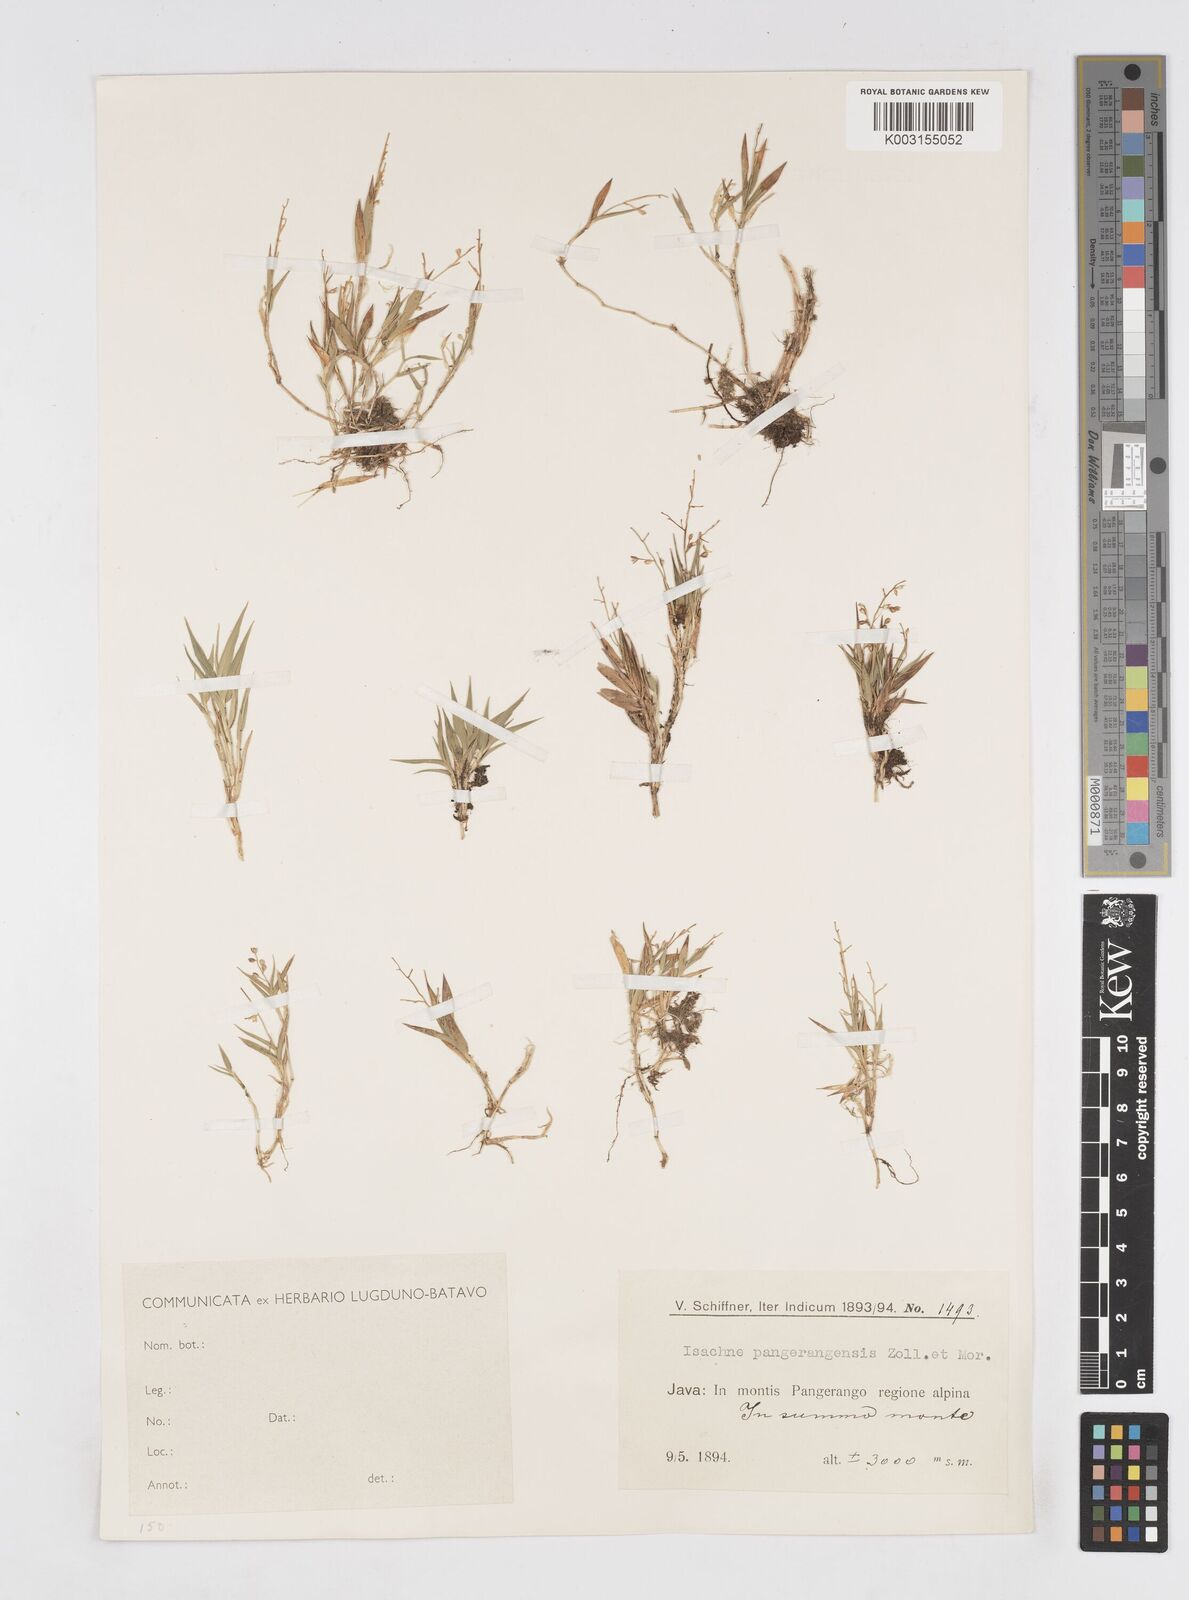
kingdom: Plantae
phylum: Tracheophyta
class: Liliopsida
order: Poales
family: Poaceae
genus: Isachne
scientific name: Isachne pangerangensis
